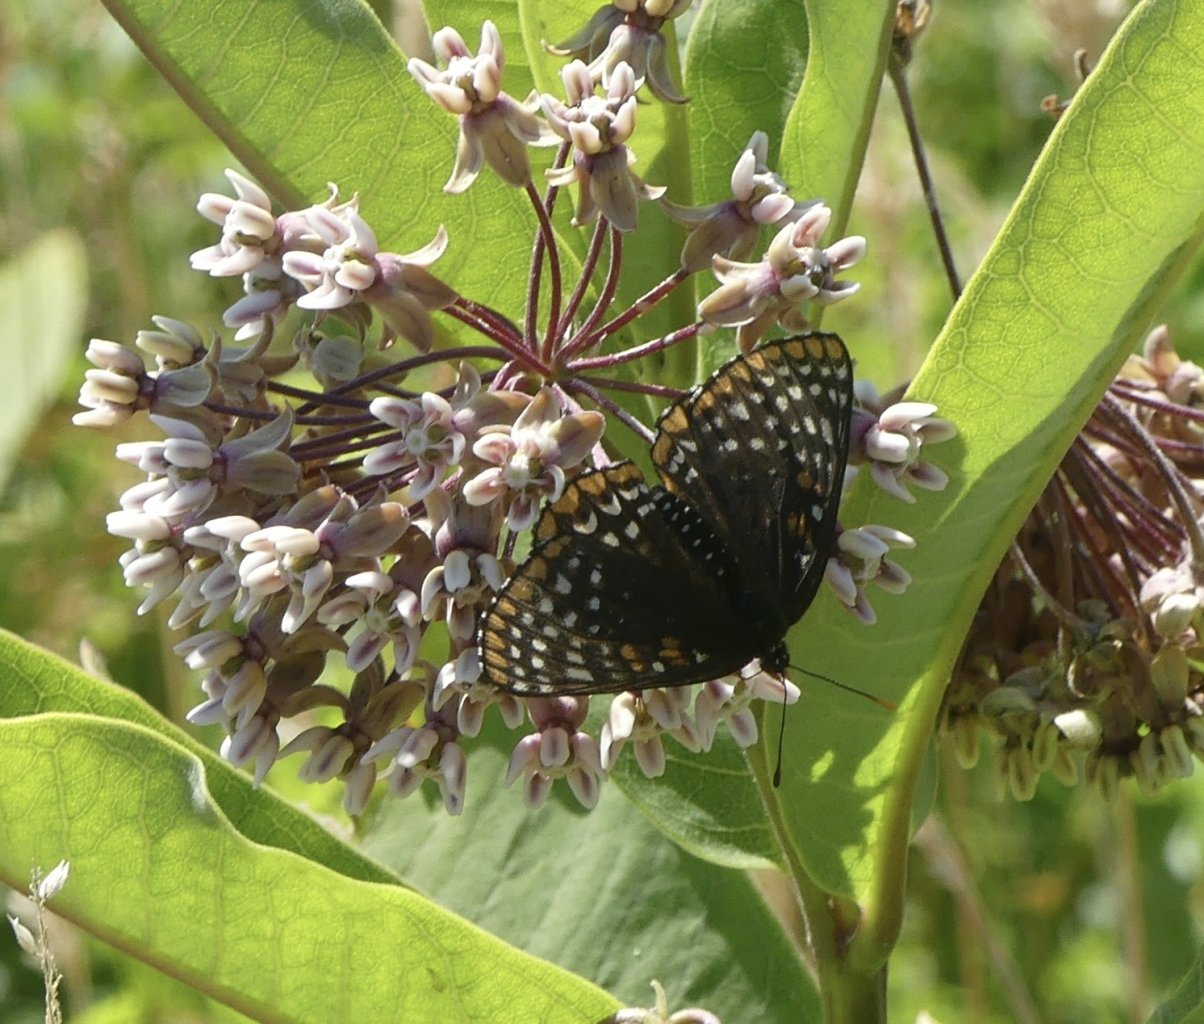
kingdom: Animalia
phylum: Arthropoda
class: Insecta
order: Lepidoptera
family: Nymphalidae
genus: Euphydryas
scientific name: Euphydryas phaeton
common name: Baltimore Checkerspot
